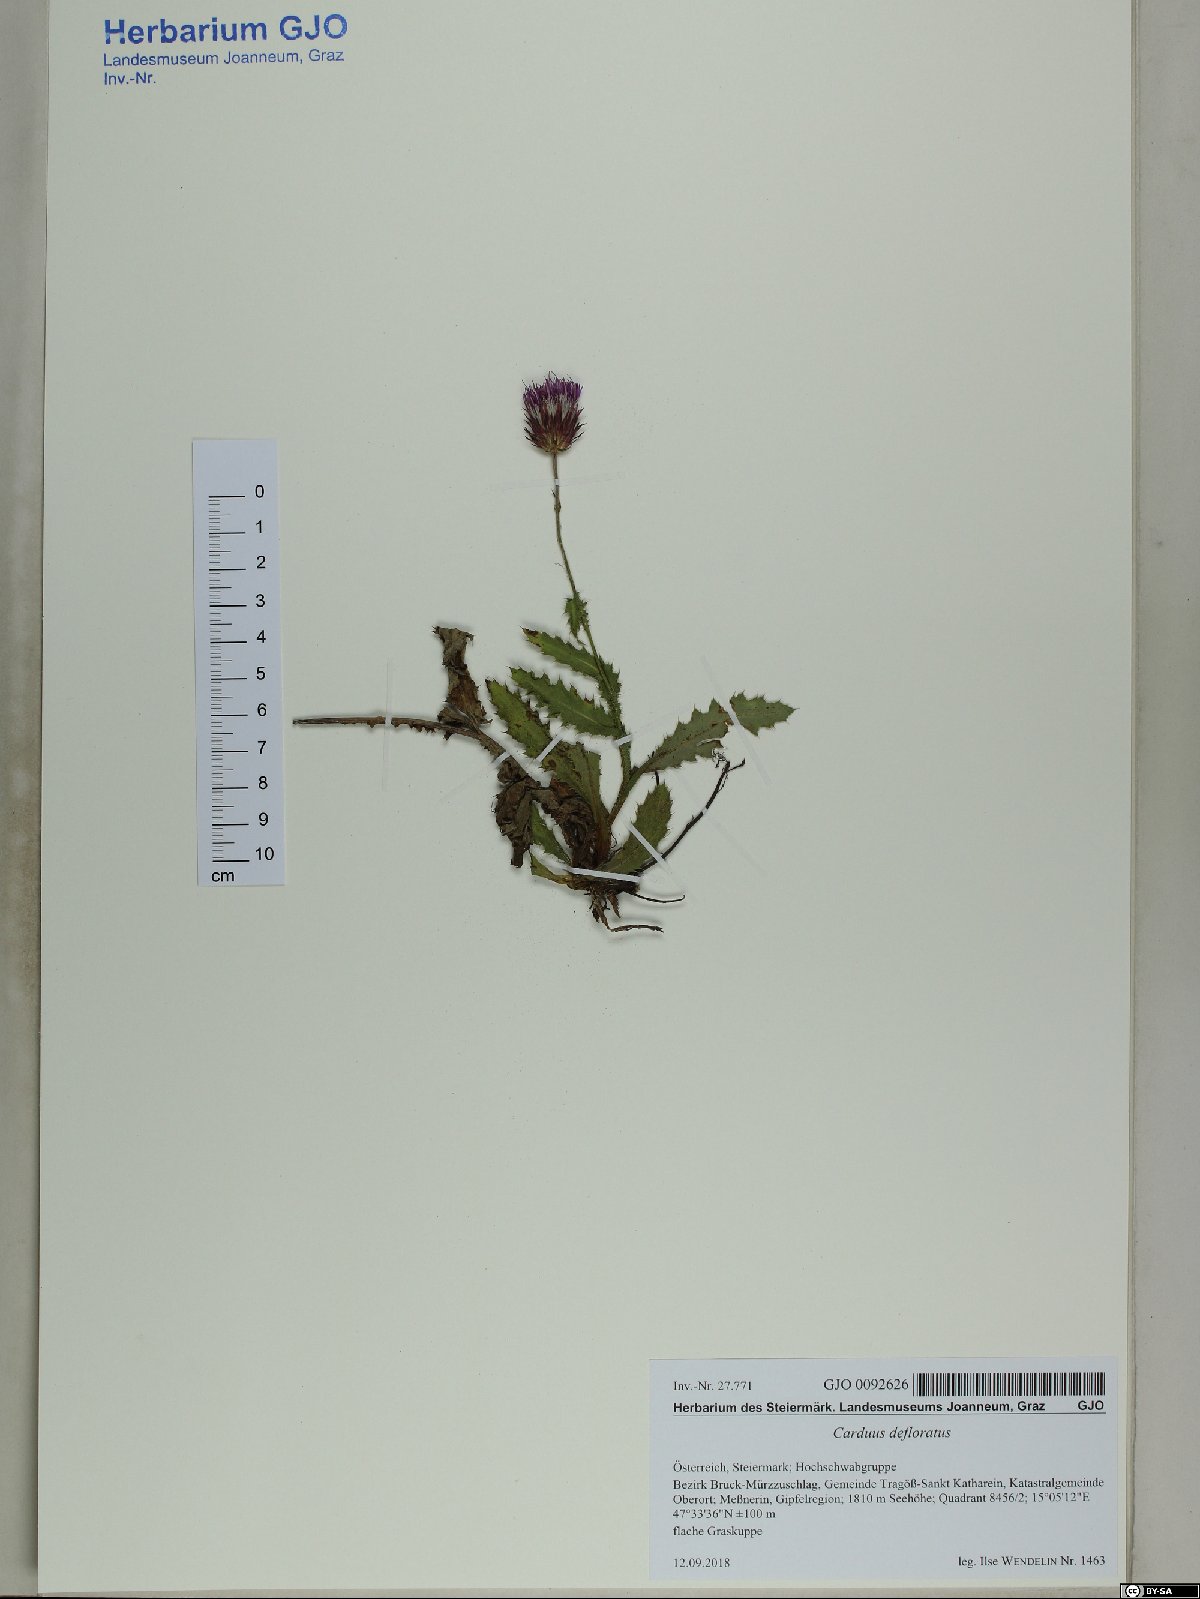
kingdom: Plantae
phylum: Tracheophyta
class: Magnoliopsida
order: Asterales
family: Asteraceae
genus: Carduus
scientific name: Carduus defloratus
